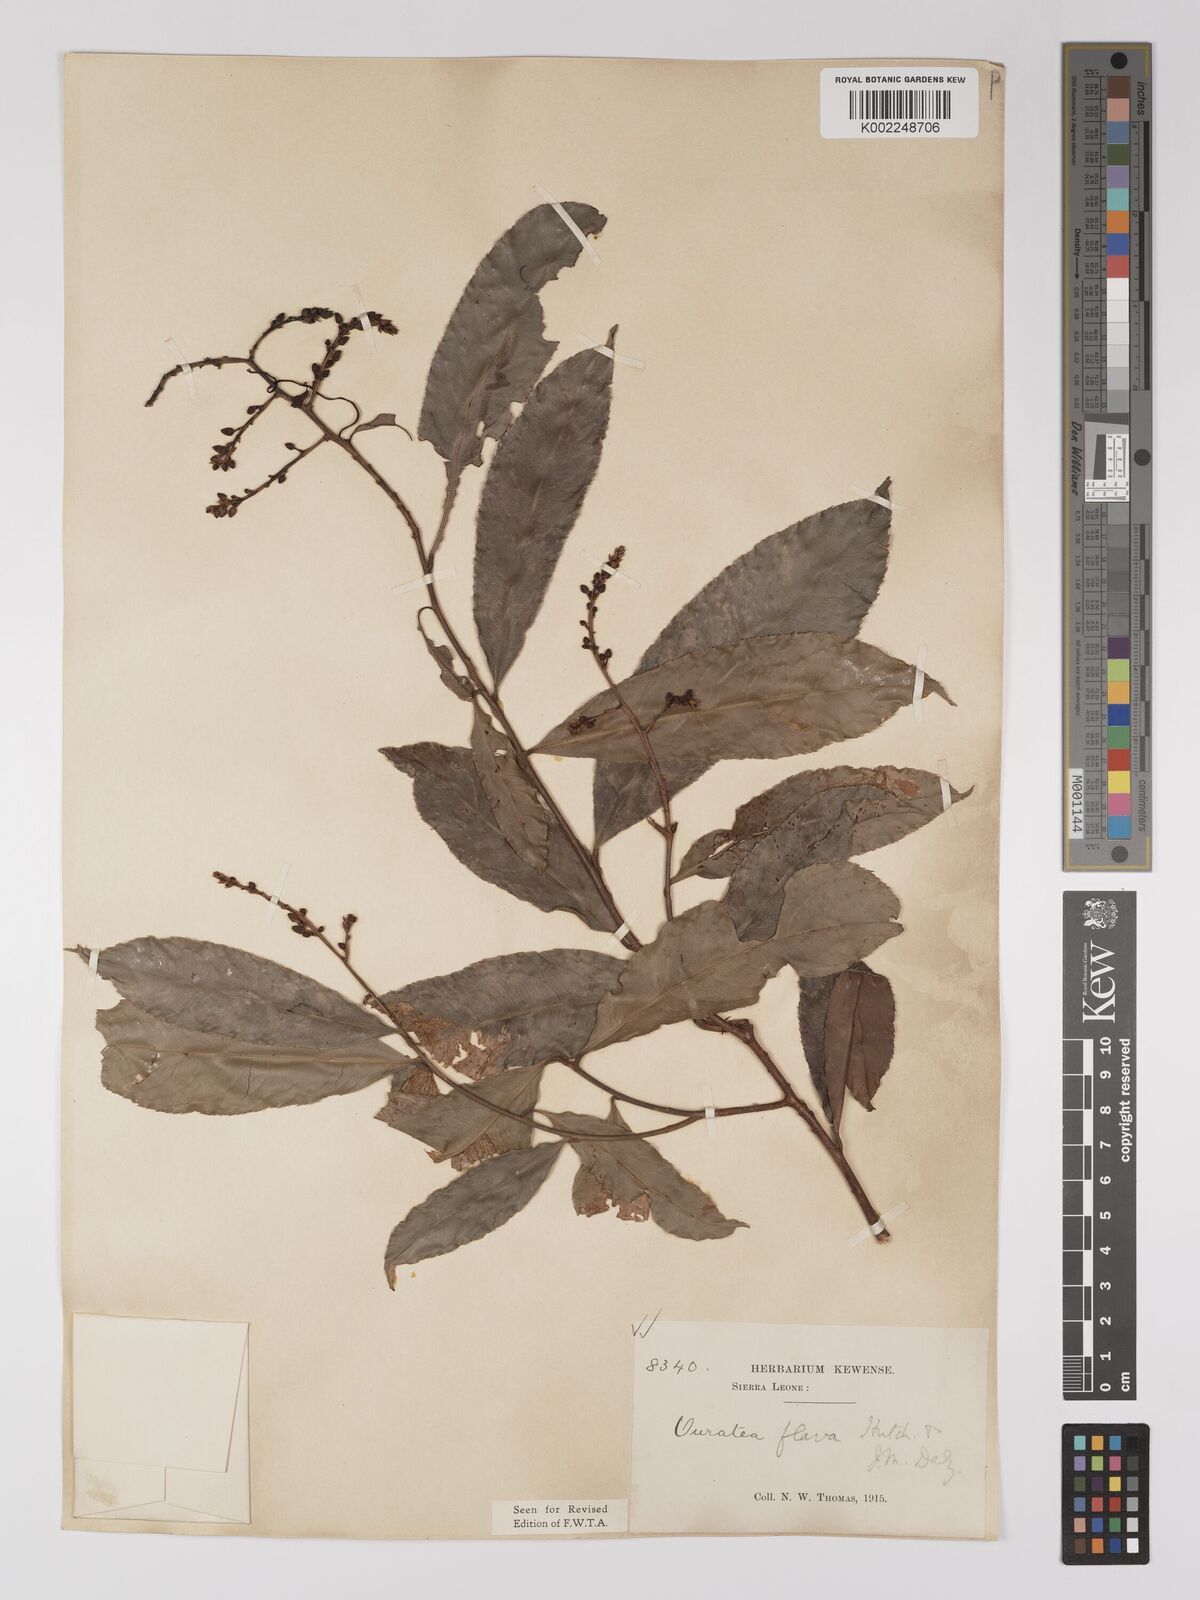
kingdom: Plantae
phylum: Tracheophyta
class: Magnoliopsida
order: Malpighiales
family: Ochnaceae
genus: Campylospermum
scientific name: Campylospermum flavum
